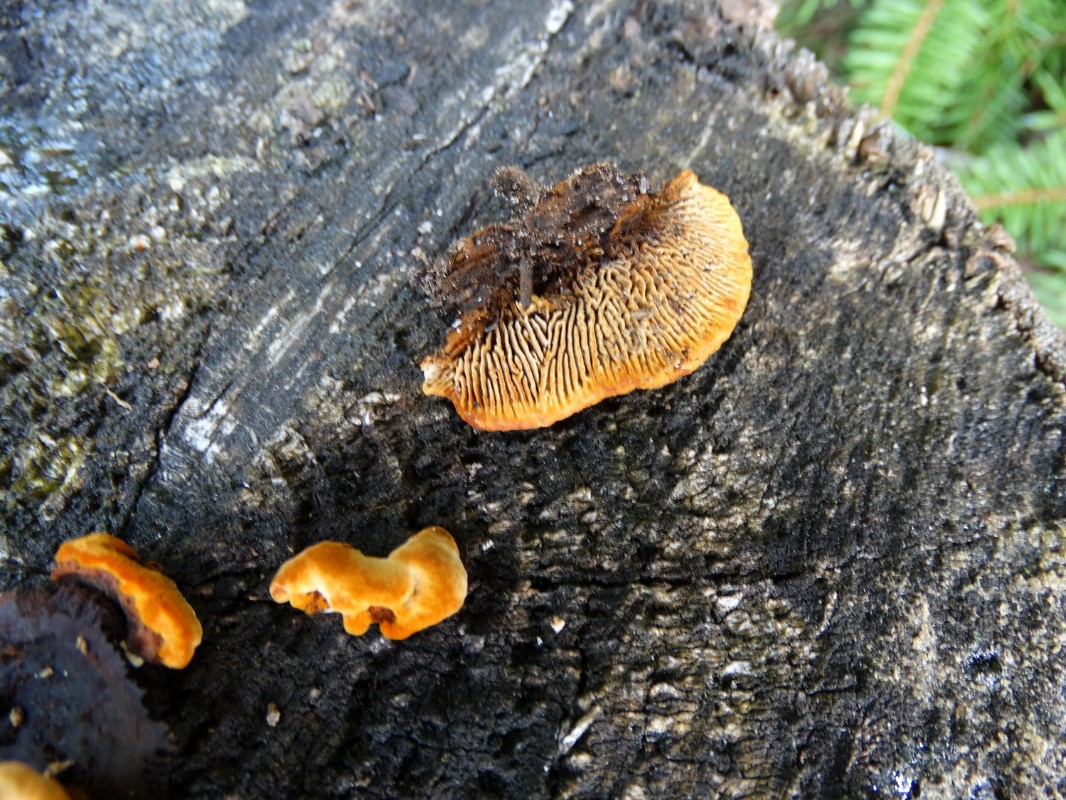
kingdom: Fungi
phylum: Basidiomycota
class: Agaricomycetes
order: Gloeophyllales
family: Gloeophyllaceae
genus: Gloeophyllum
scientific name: Gloeophyllum sepiarium
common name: fyrre-korkhat
